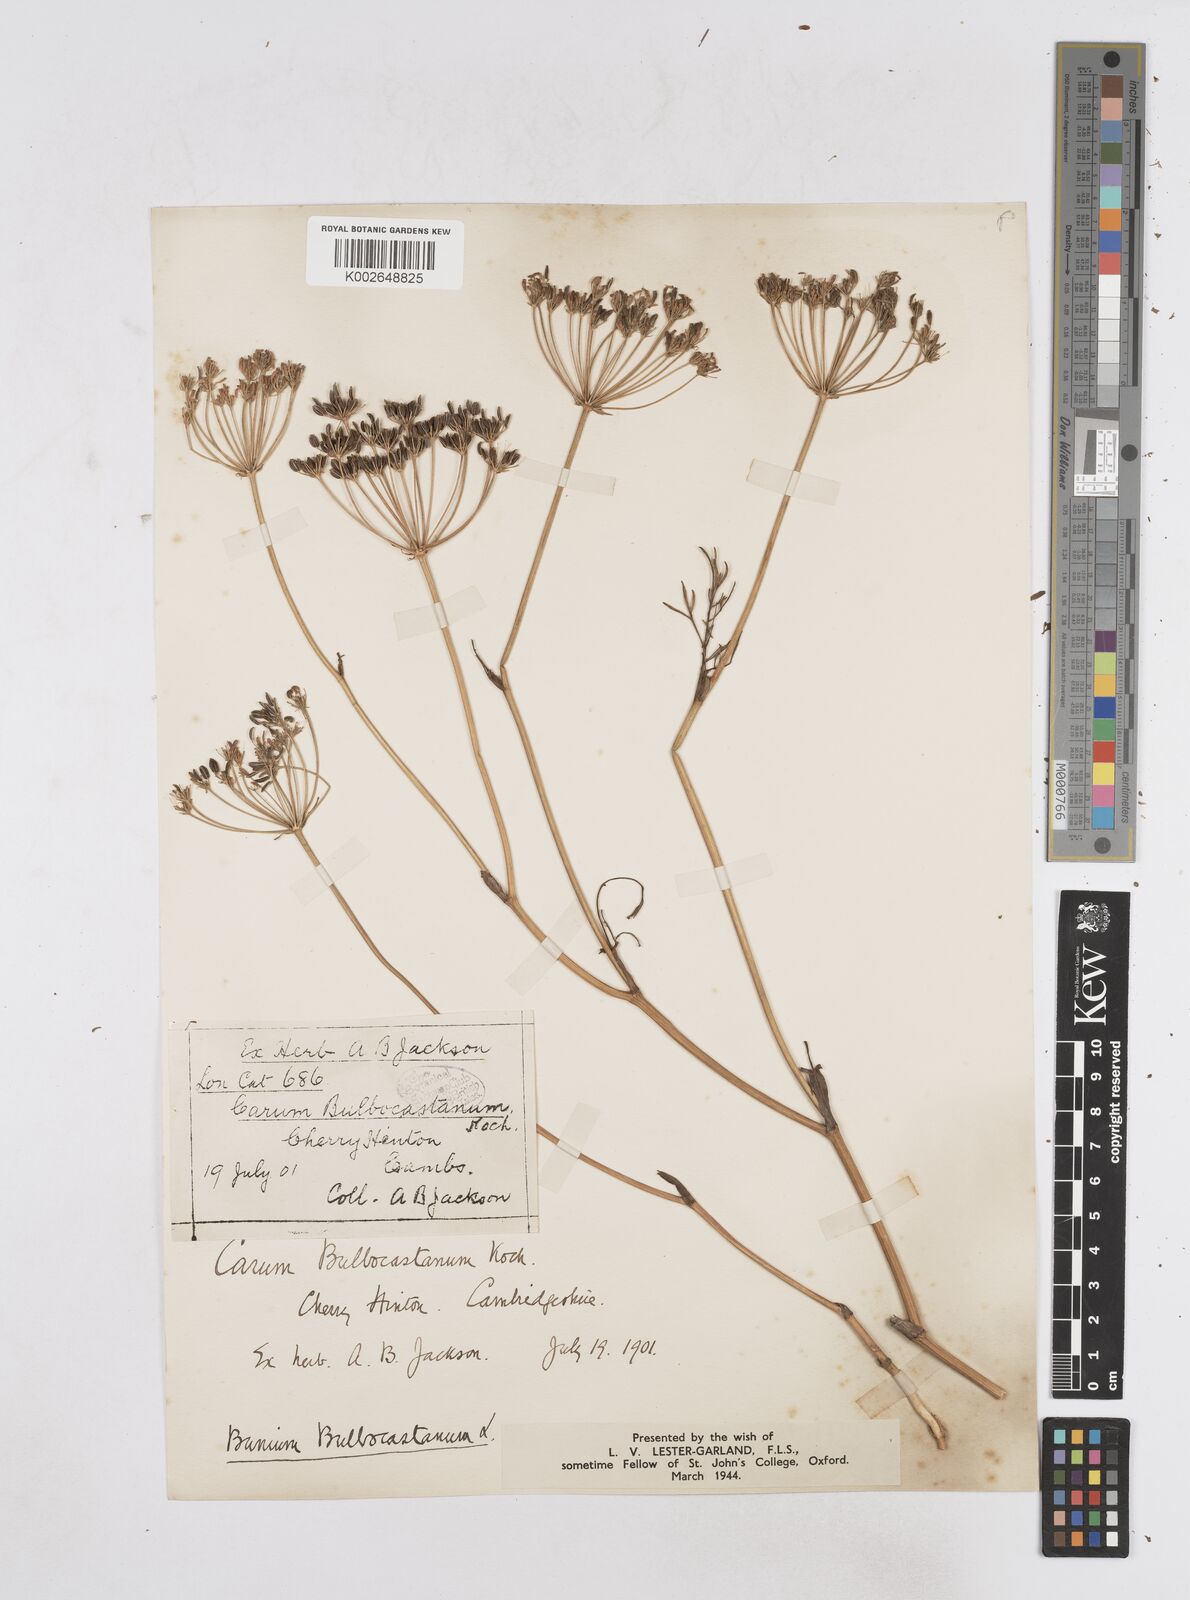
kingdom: Plantae
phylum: Tracheophyta
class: Magnoliopsida
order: Apiales
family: Apiaceae
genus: Bunium
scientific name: Bunium bulbocastanum
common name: Great pignut
